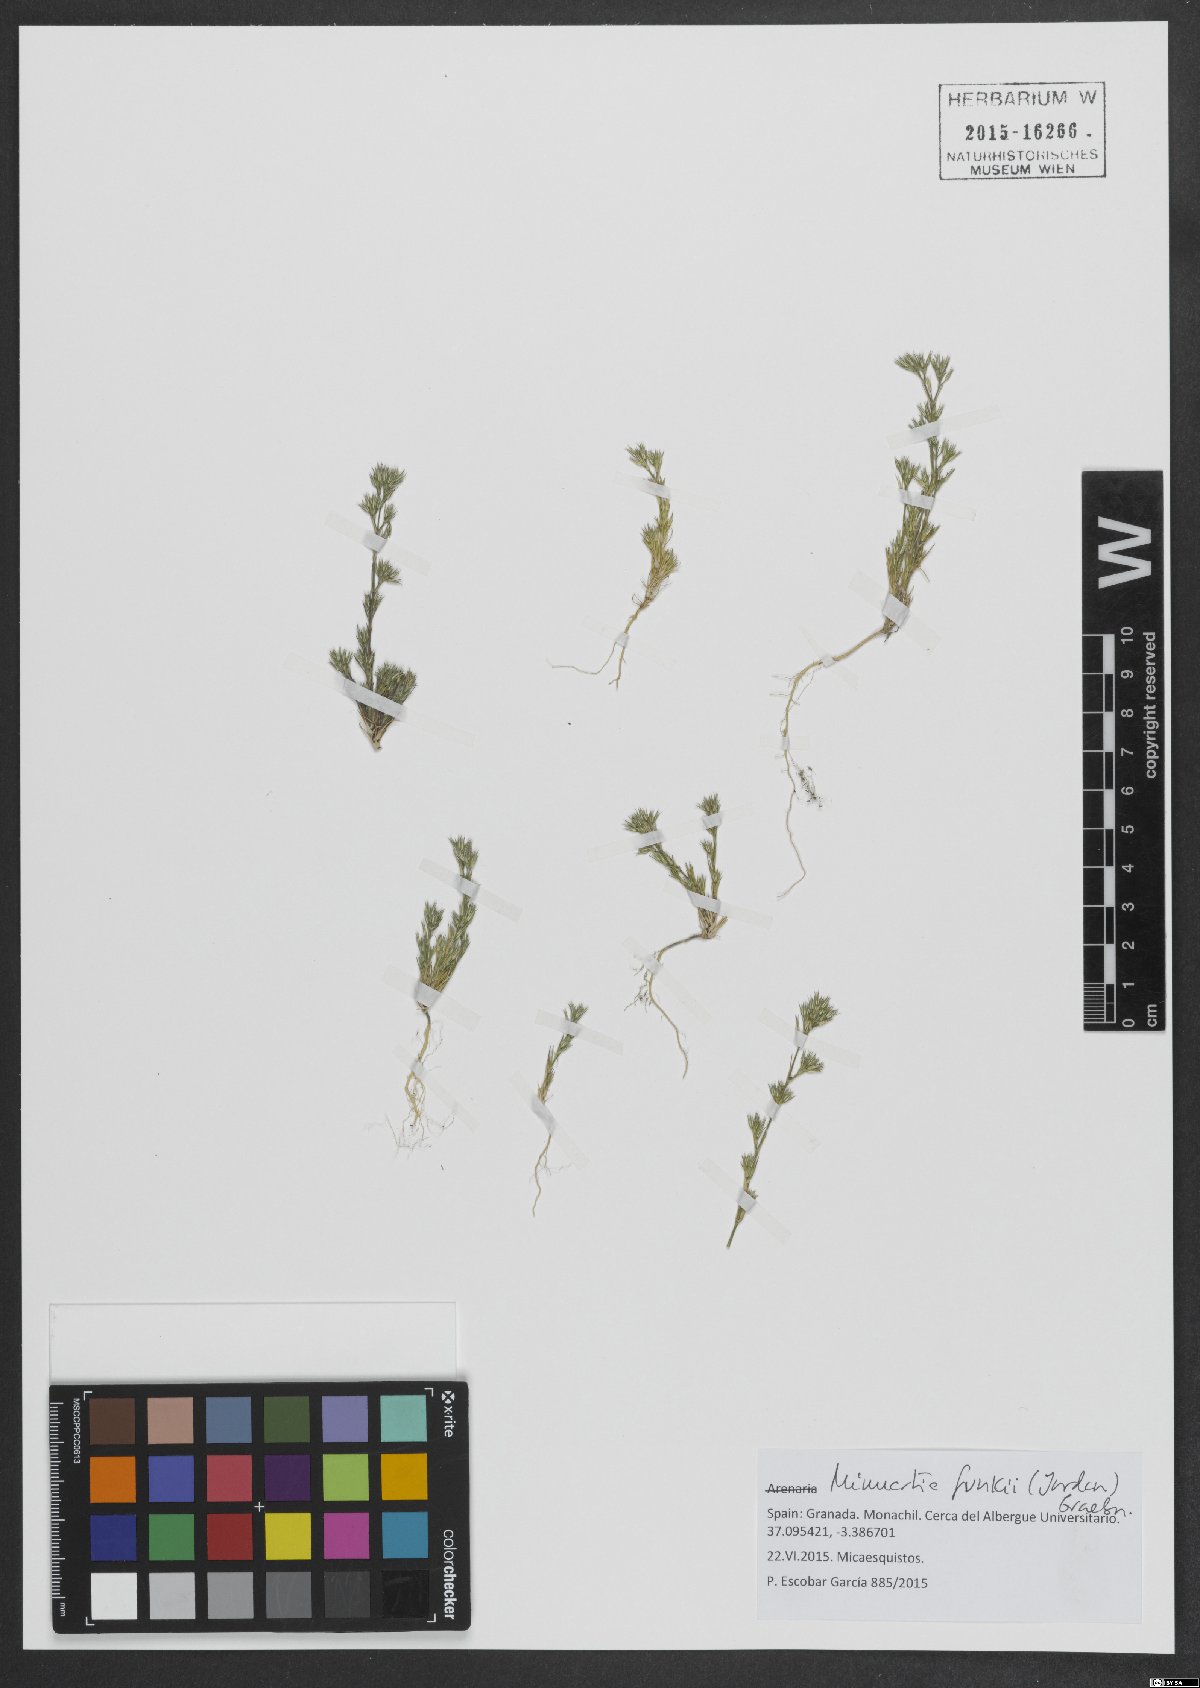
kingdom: Plantae
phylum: Tracheophyta
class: Magnoliopsida
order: Caryophyllales
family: Caryophyllaceae
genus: Minuartia
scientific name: Minuartia funkii
